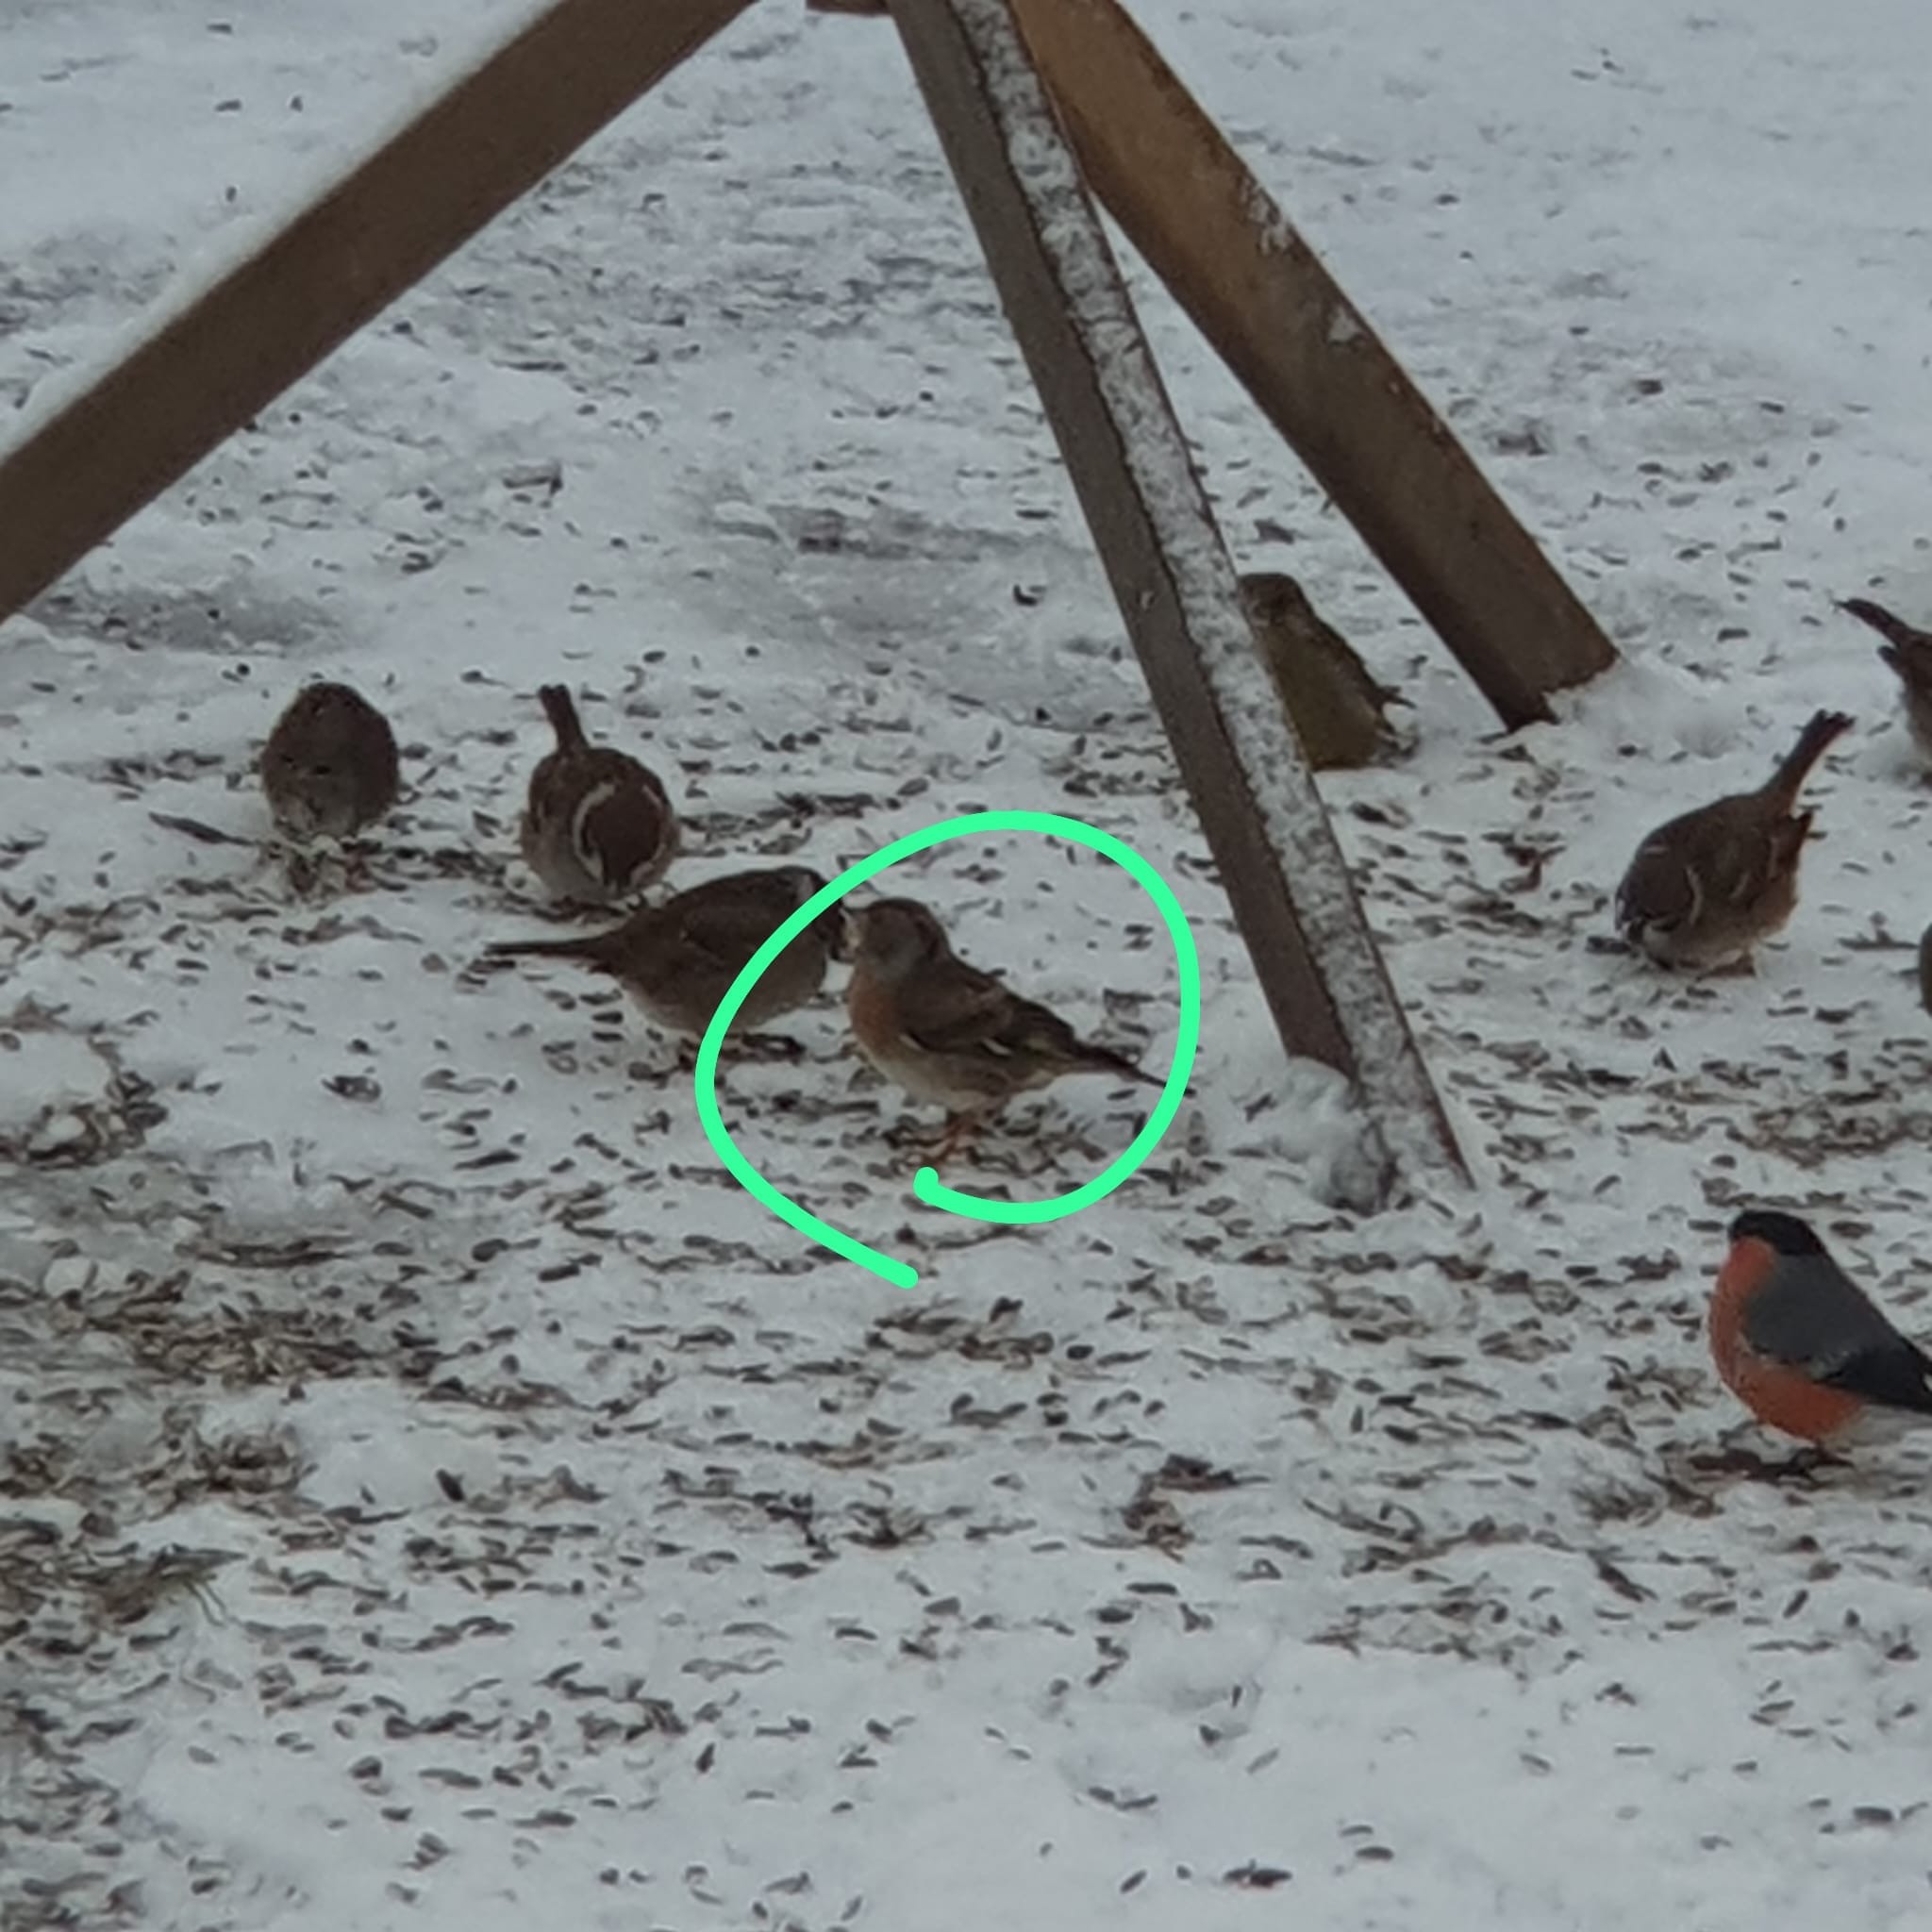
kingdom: Animalia
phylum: Chordata
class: Aves
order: Passeriformes
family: Fringillidae
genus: Fringilla
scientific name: Fringilla montifringilla
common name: Kvækerfinke
